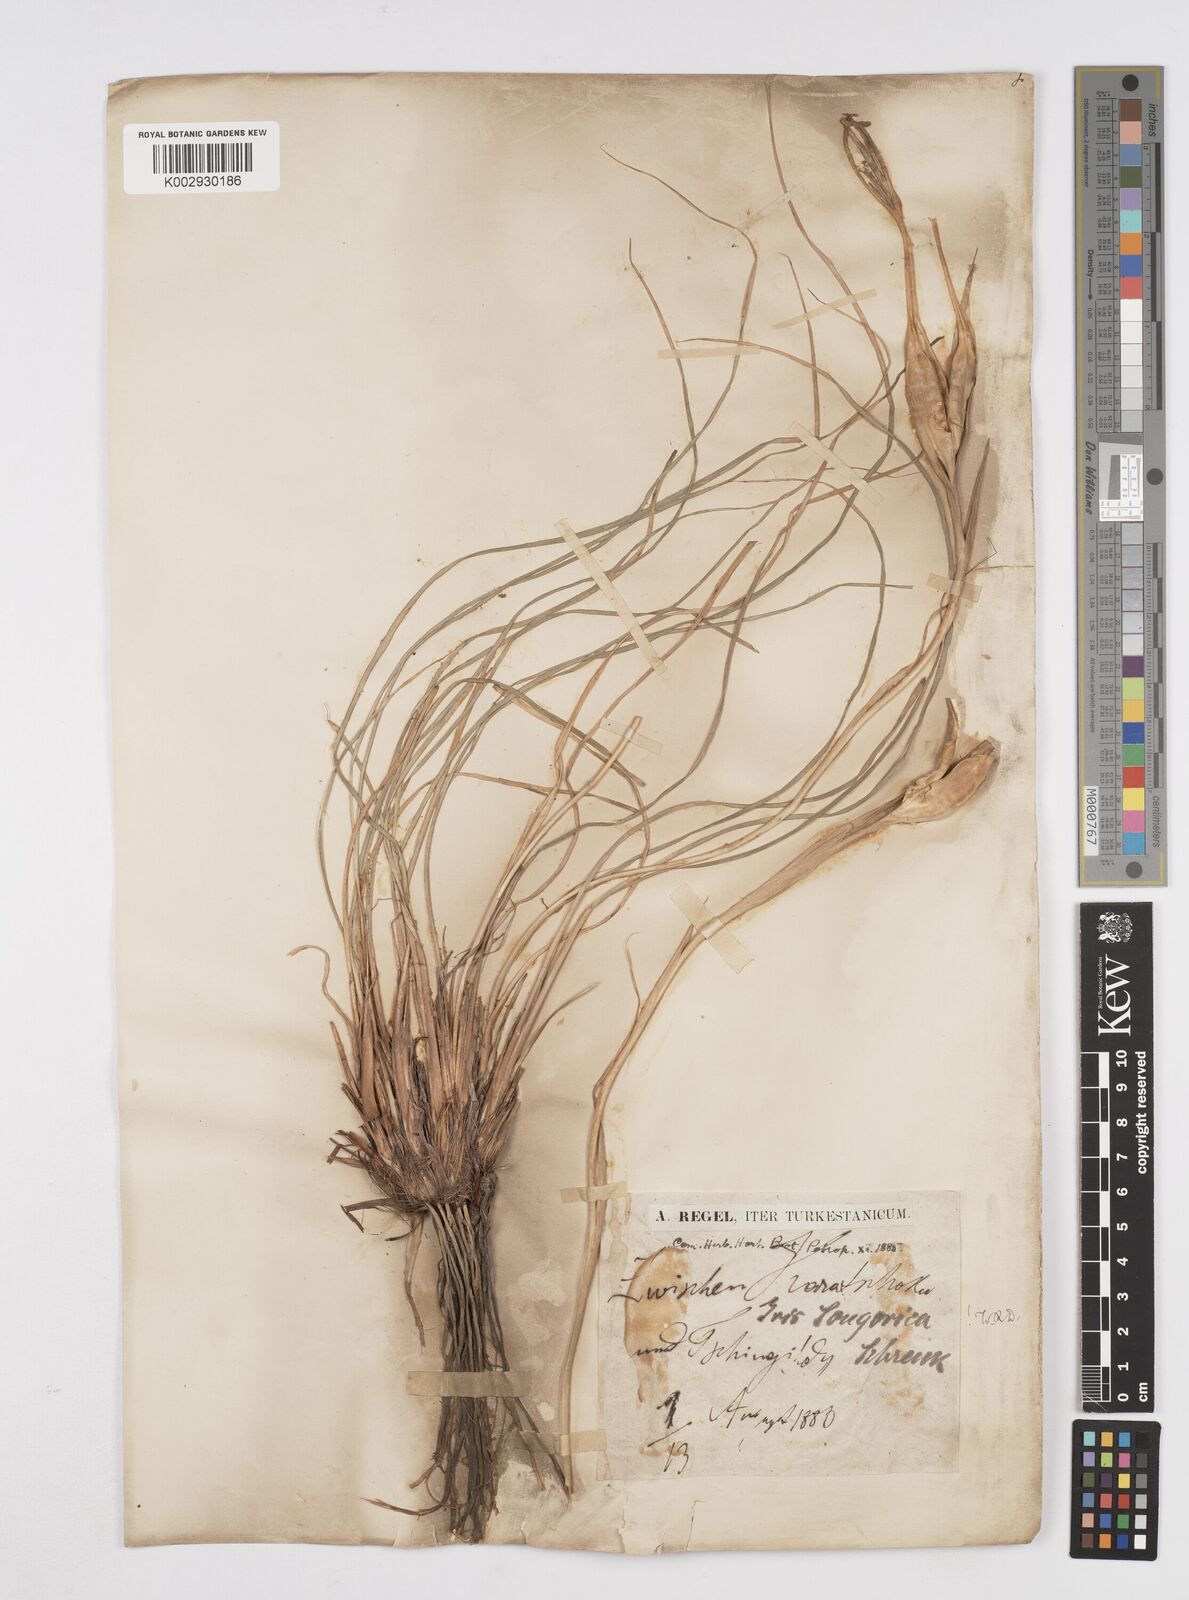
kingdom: Plantae
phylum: Tracheophyta
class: Liliopsida
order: Asparagales
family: Iridaceae
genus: Iris
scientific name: Iris songarica
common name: Songar iris
